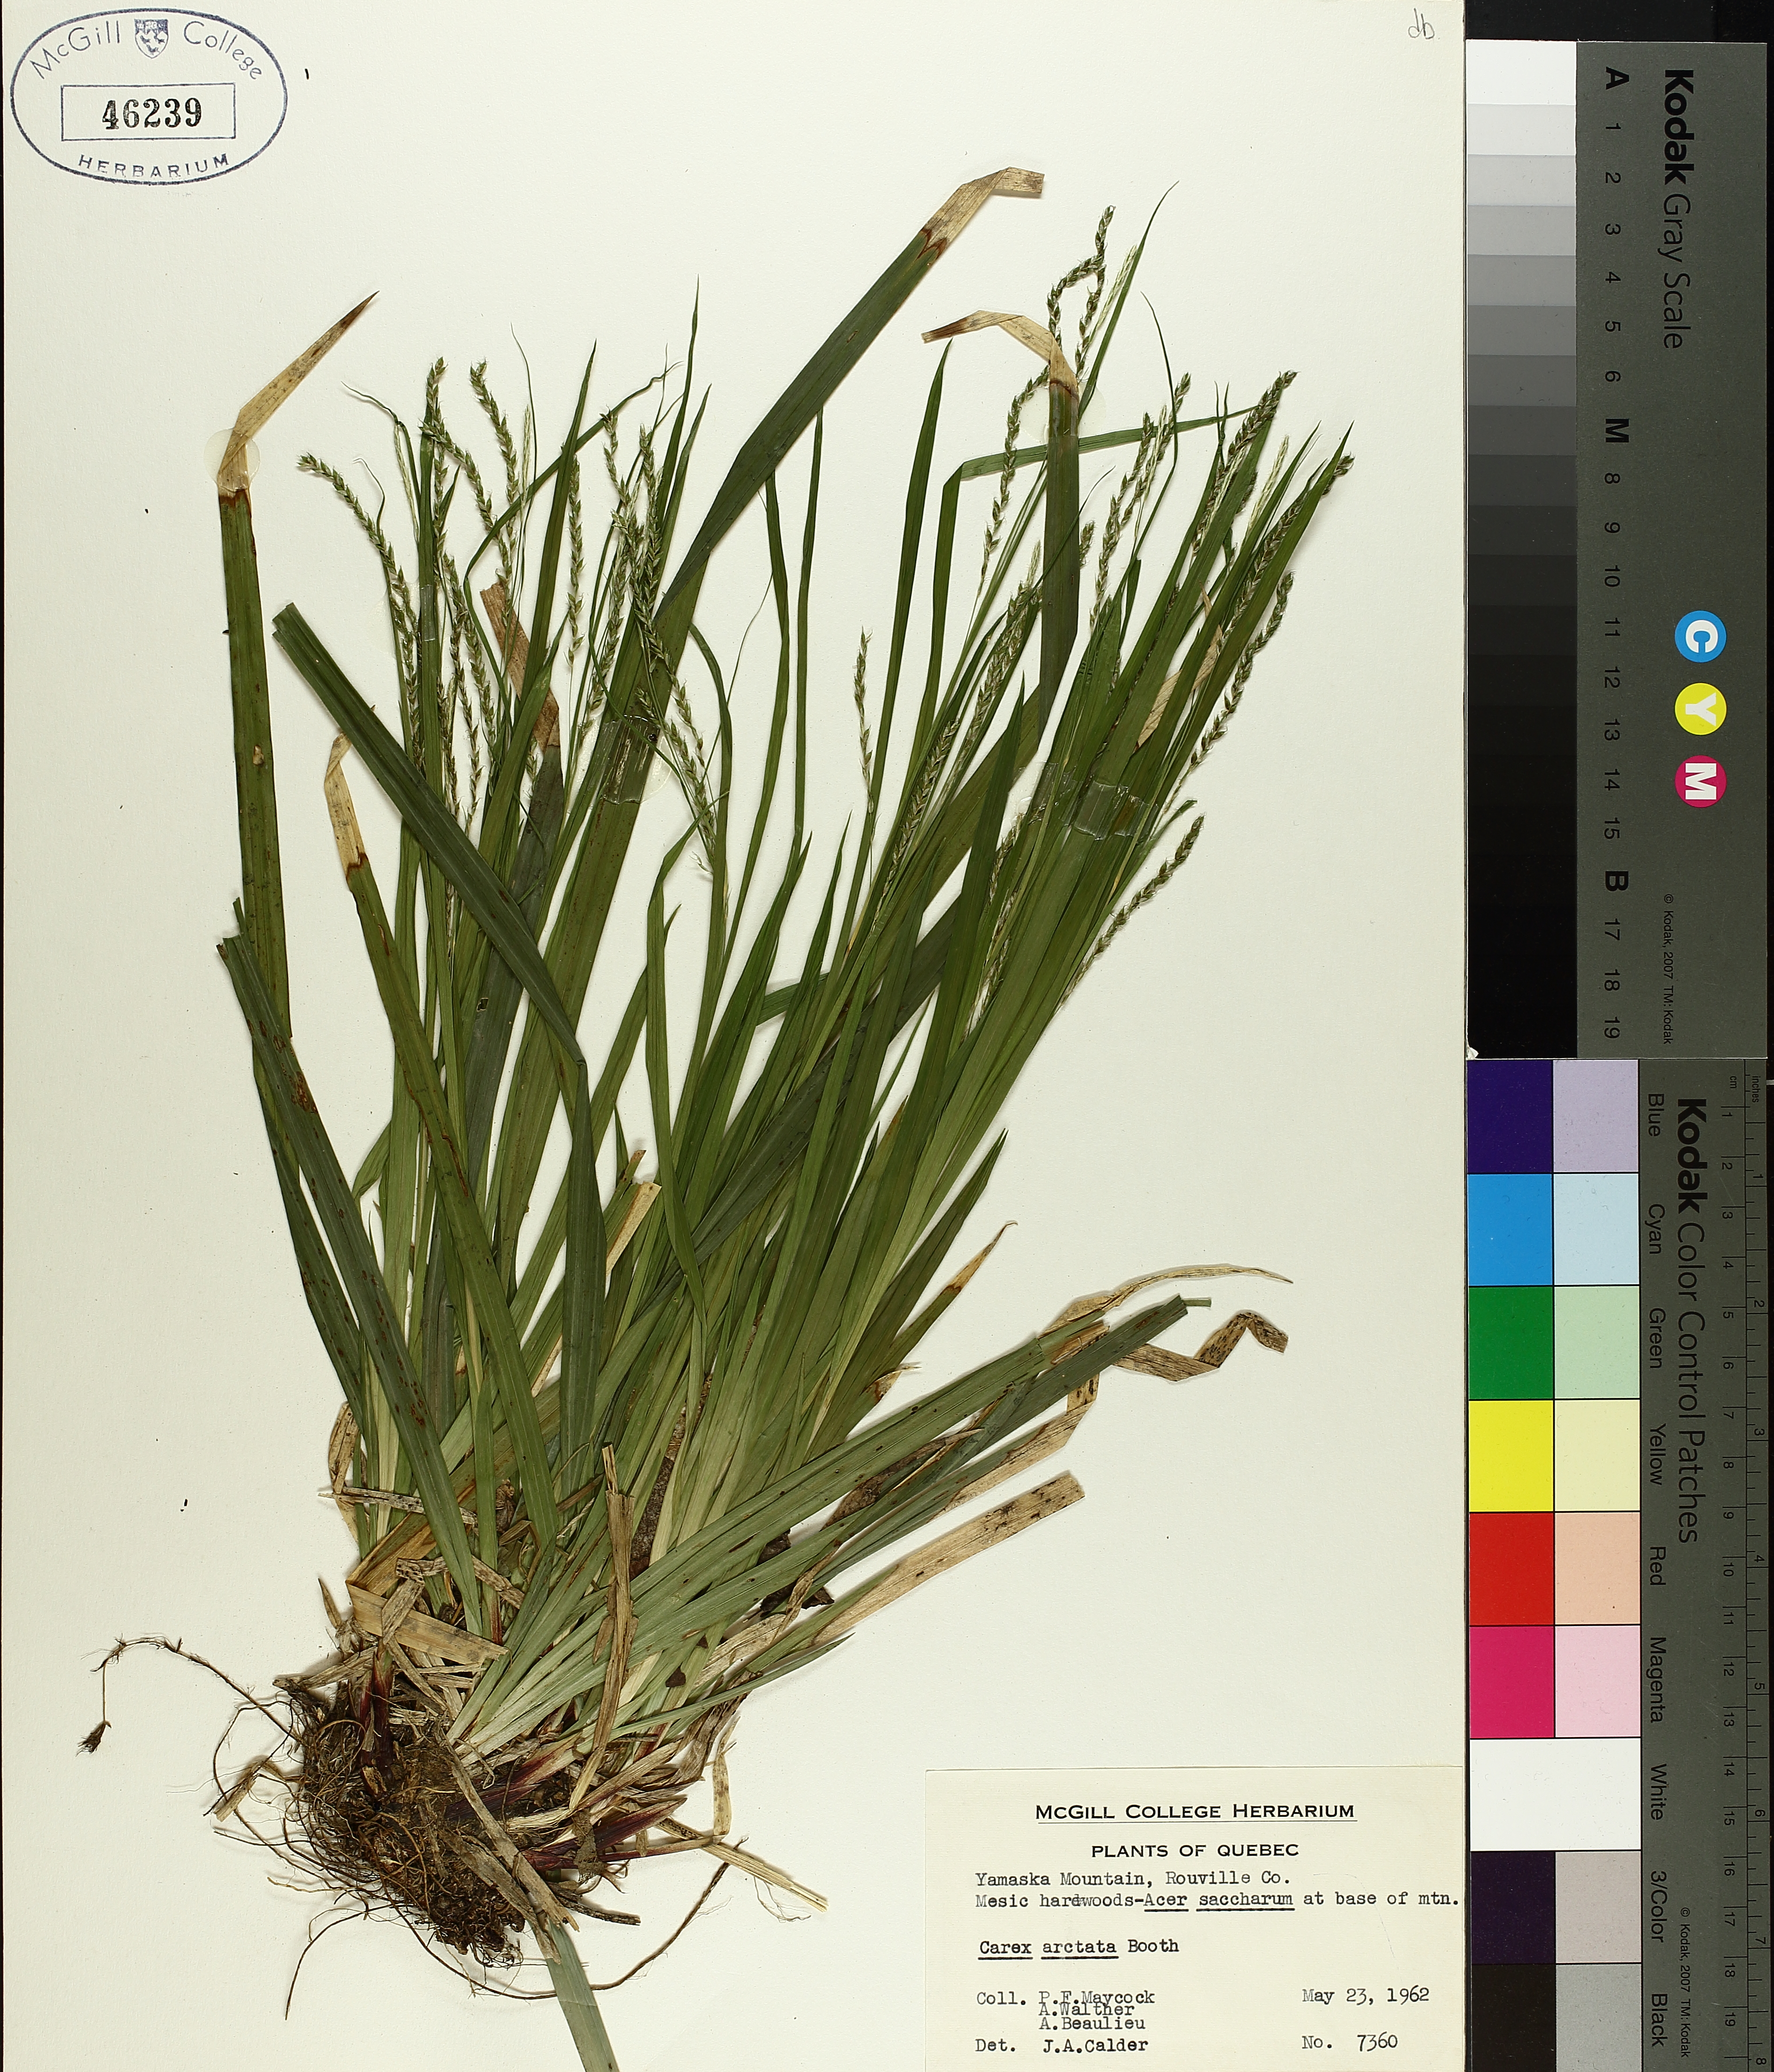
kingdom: Plantae
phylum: Tracheophyta
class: Liliopsida
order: Poales
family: Cyperaceae
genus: Carex
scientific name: Carex arctata
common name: Black sedge
